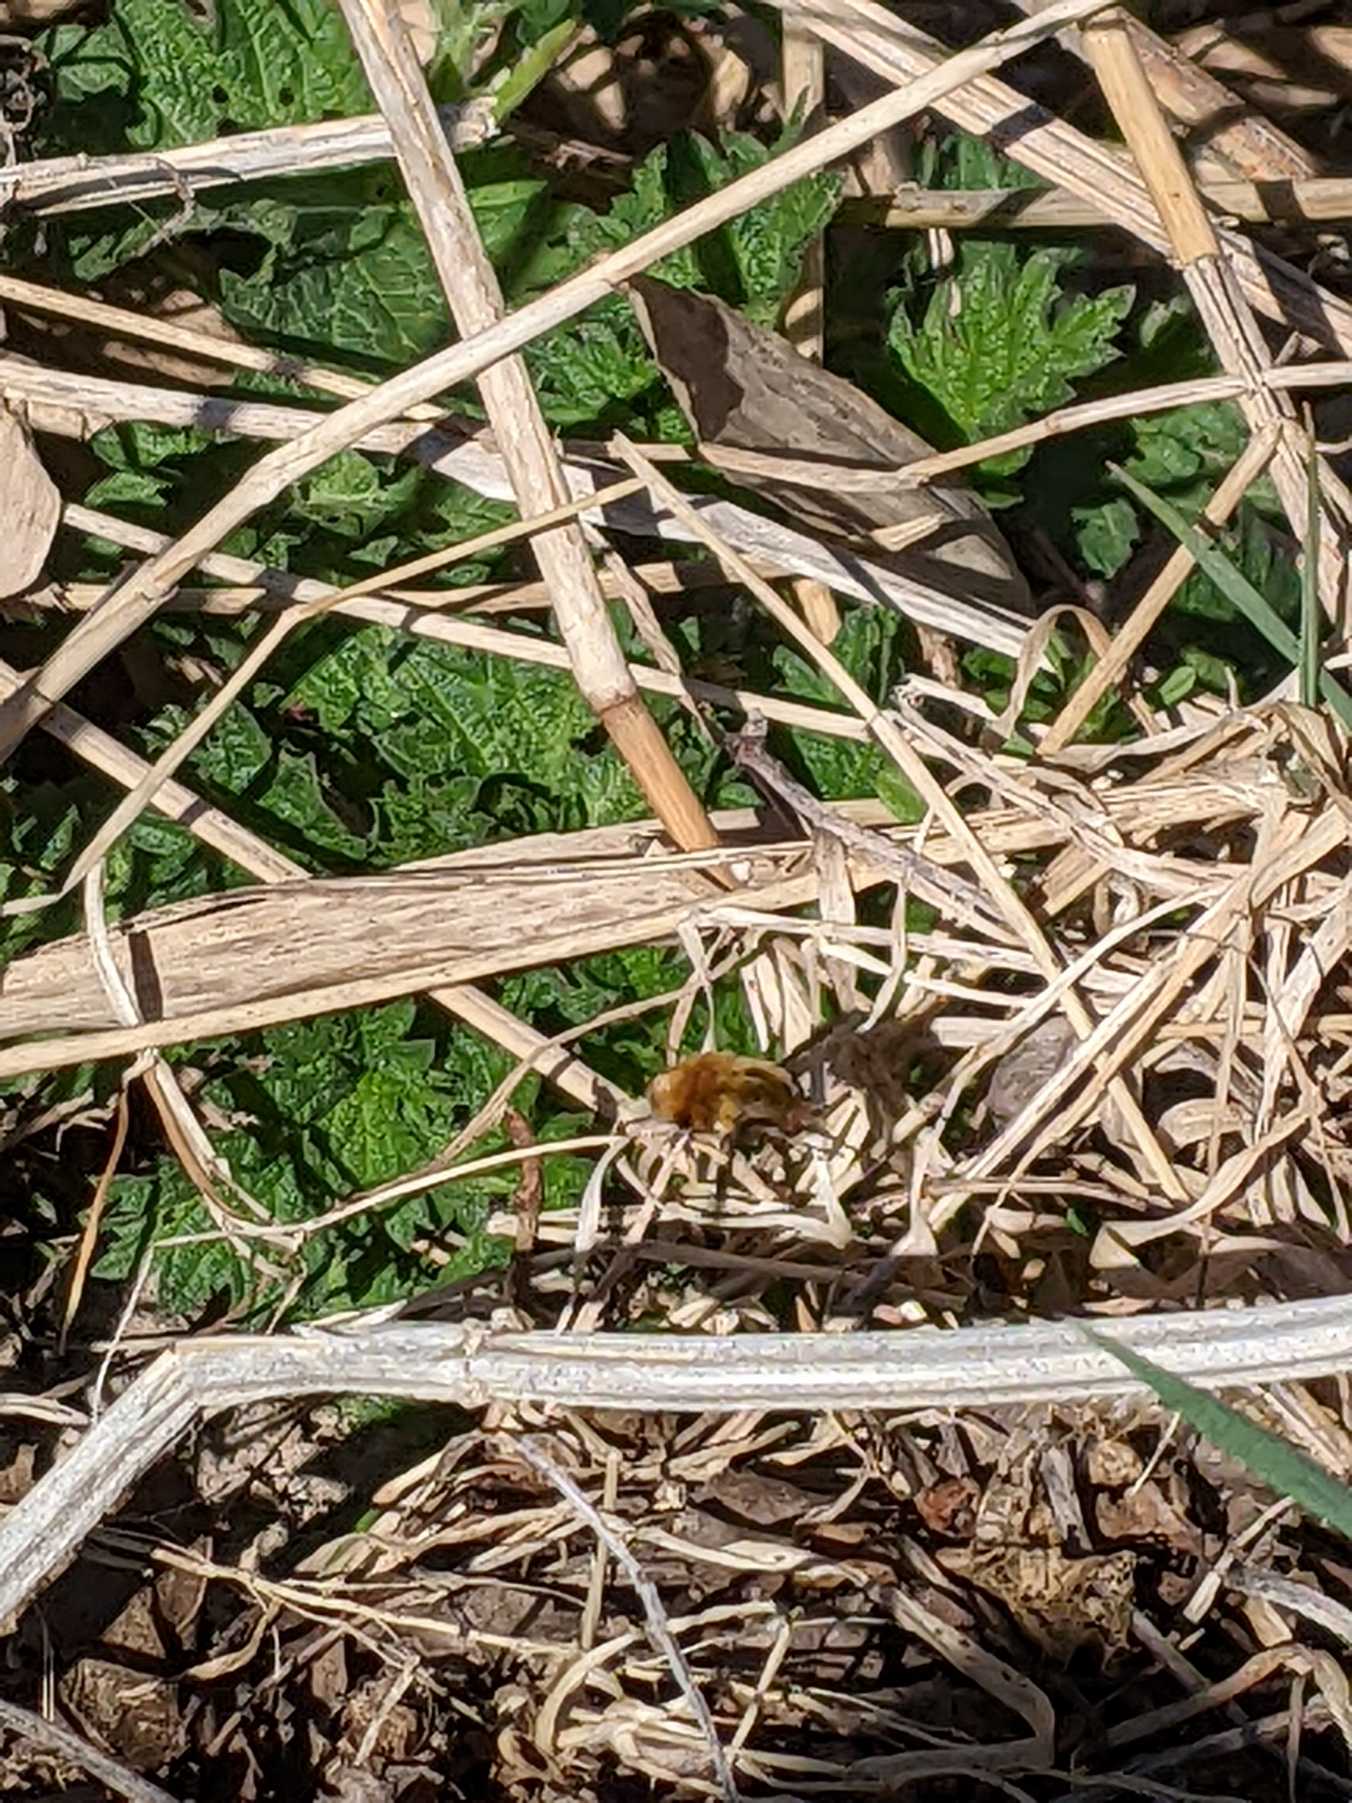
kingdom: Animalia
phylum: Arthropoda
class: Insecta
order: Diptera
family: Bombyliidae
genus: Bombylius
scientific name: Bombylius major
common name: Stor humleflue
